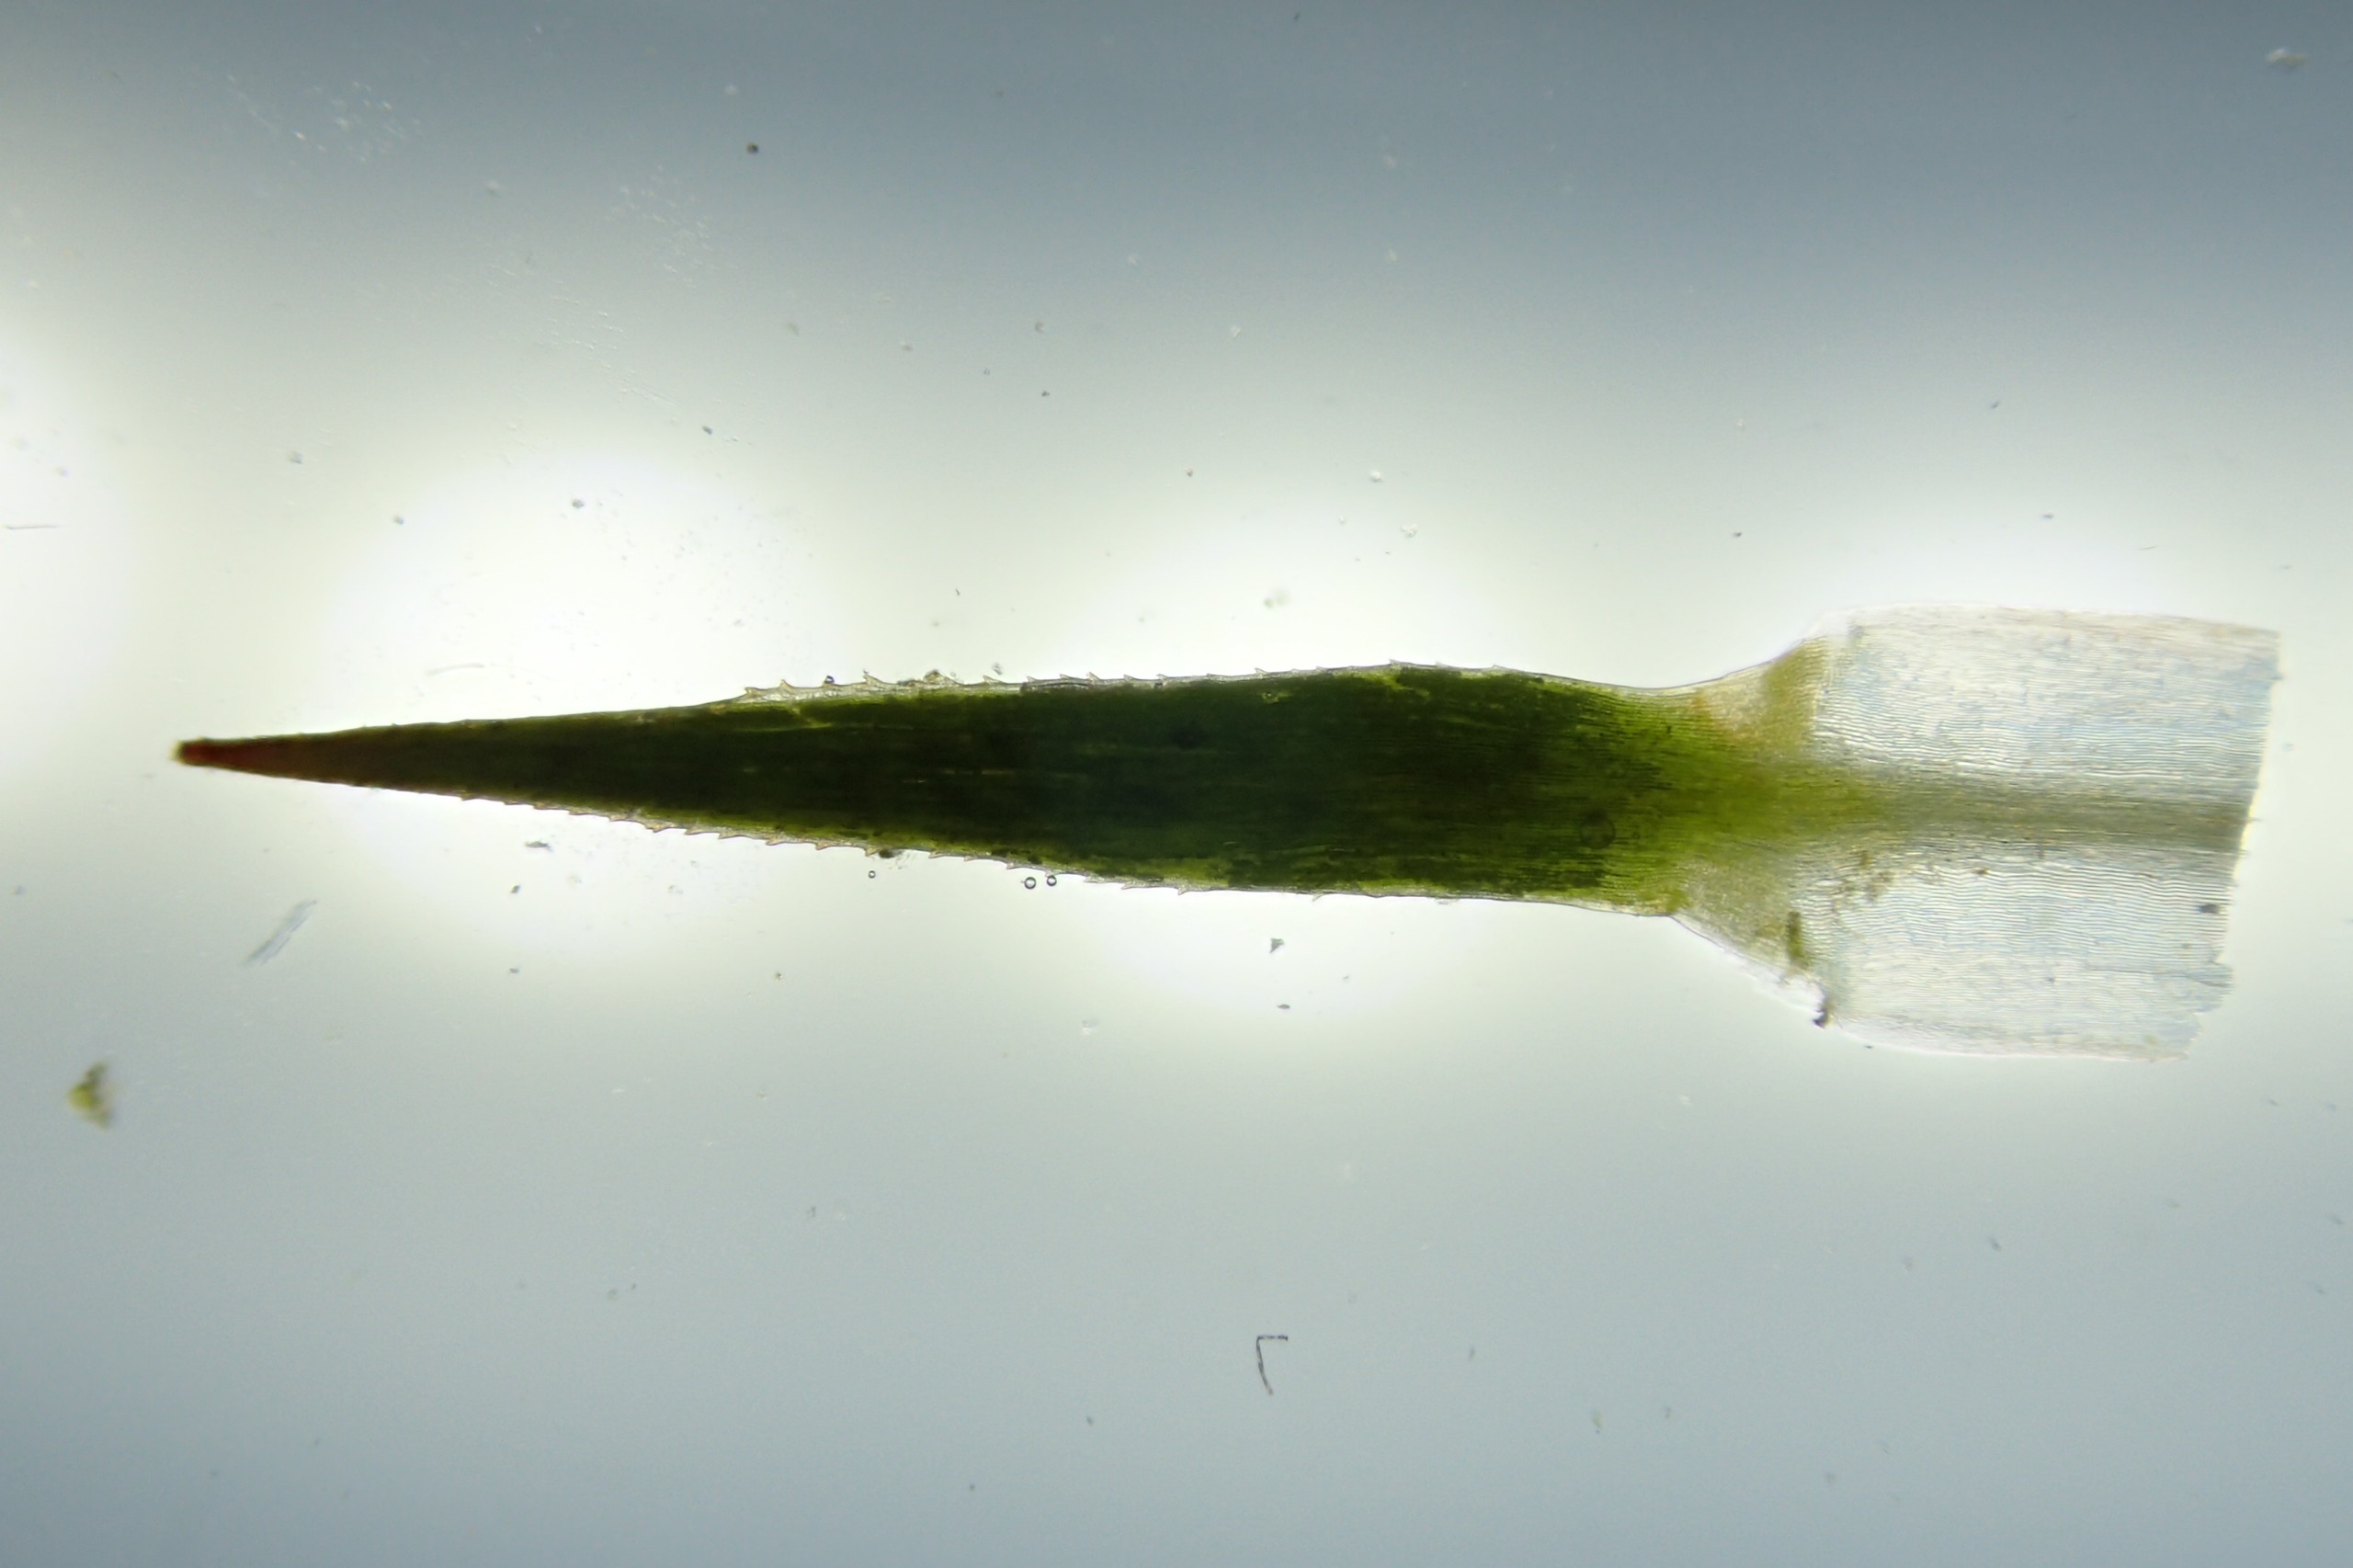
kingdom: Plantae
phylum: Bryophyta
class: Polytrichopsida
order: Polytrichales
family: Polytrichaceae
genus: Polytrichastrum
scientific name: Polytrichastrum alpinum
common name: Grenet jomfrukapsel
